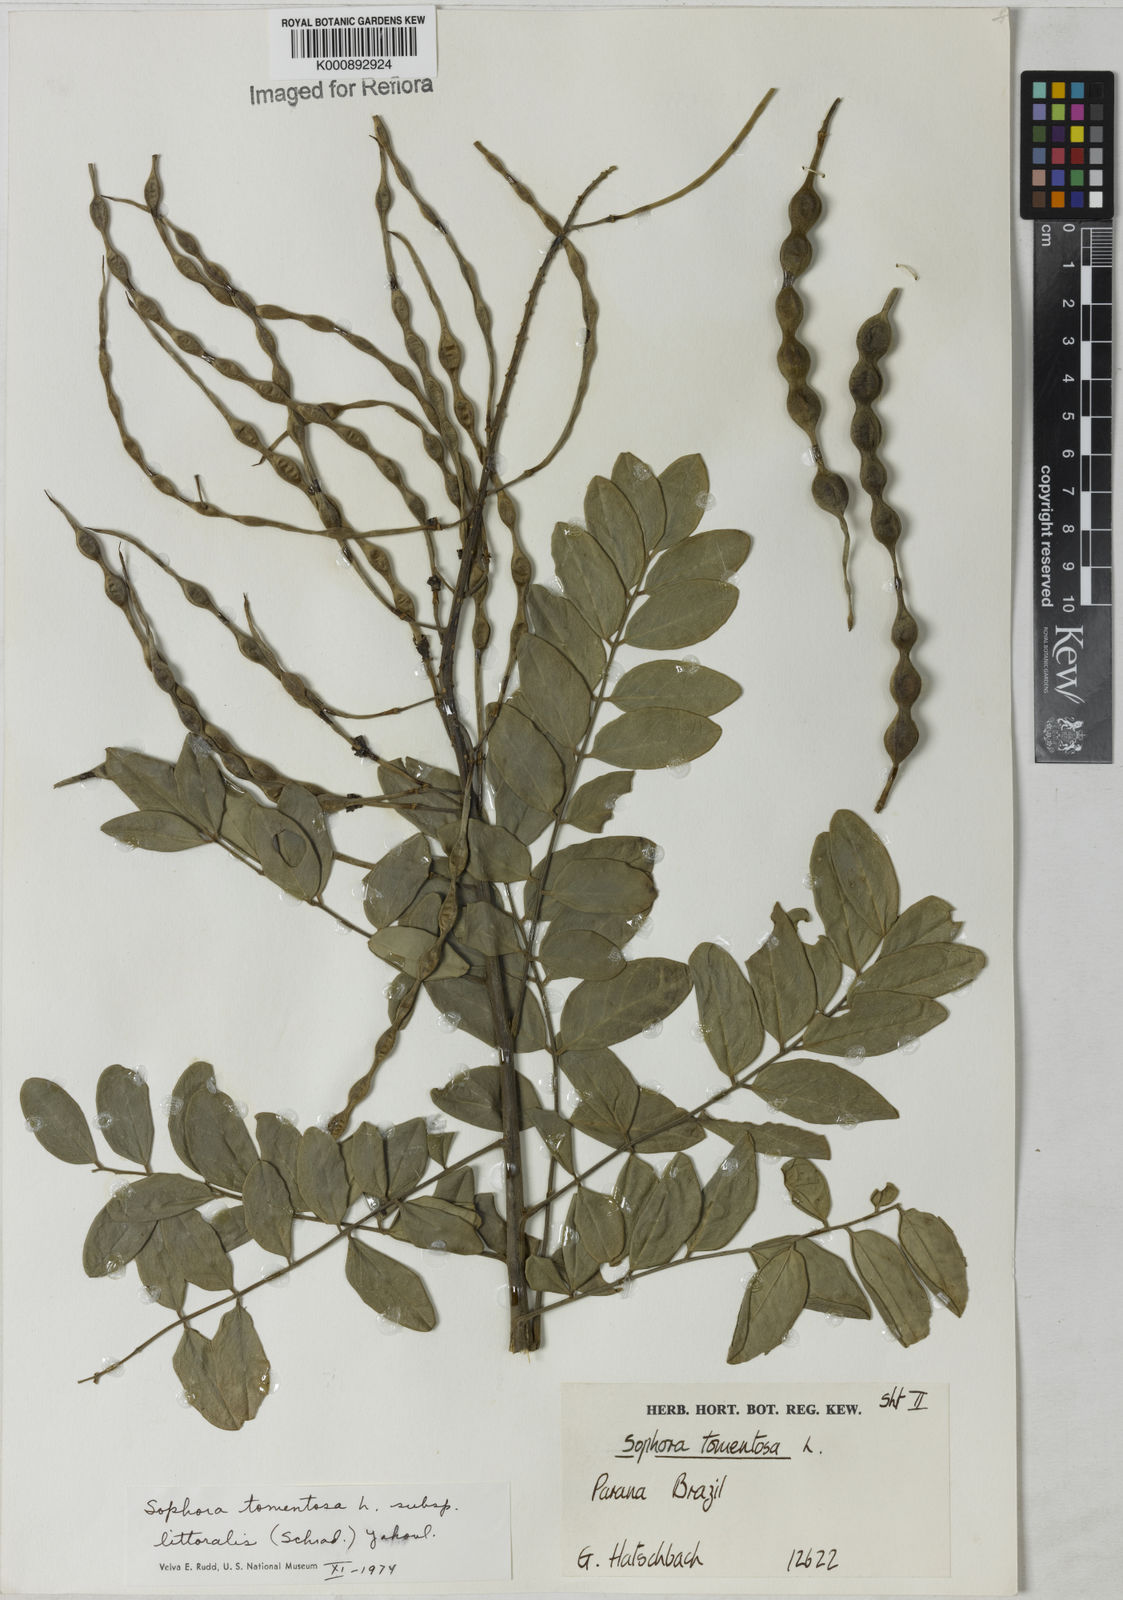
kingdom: Plantae
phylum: Tracheophyta
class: Magnoliopsida
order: Fabales
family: Fabaceae
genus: Sophora
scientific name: Sophora tomentosa
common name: Yellow necklacepod
